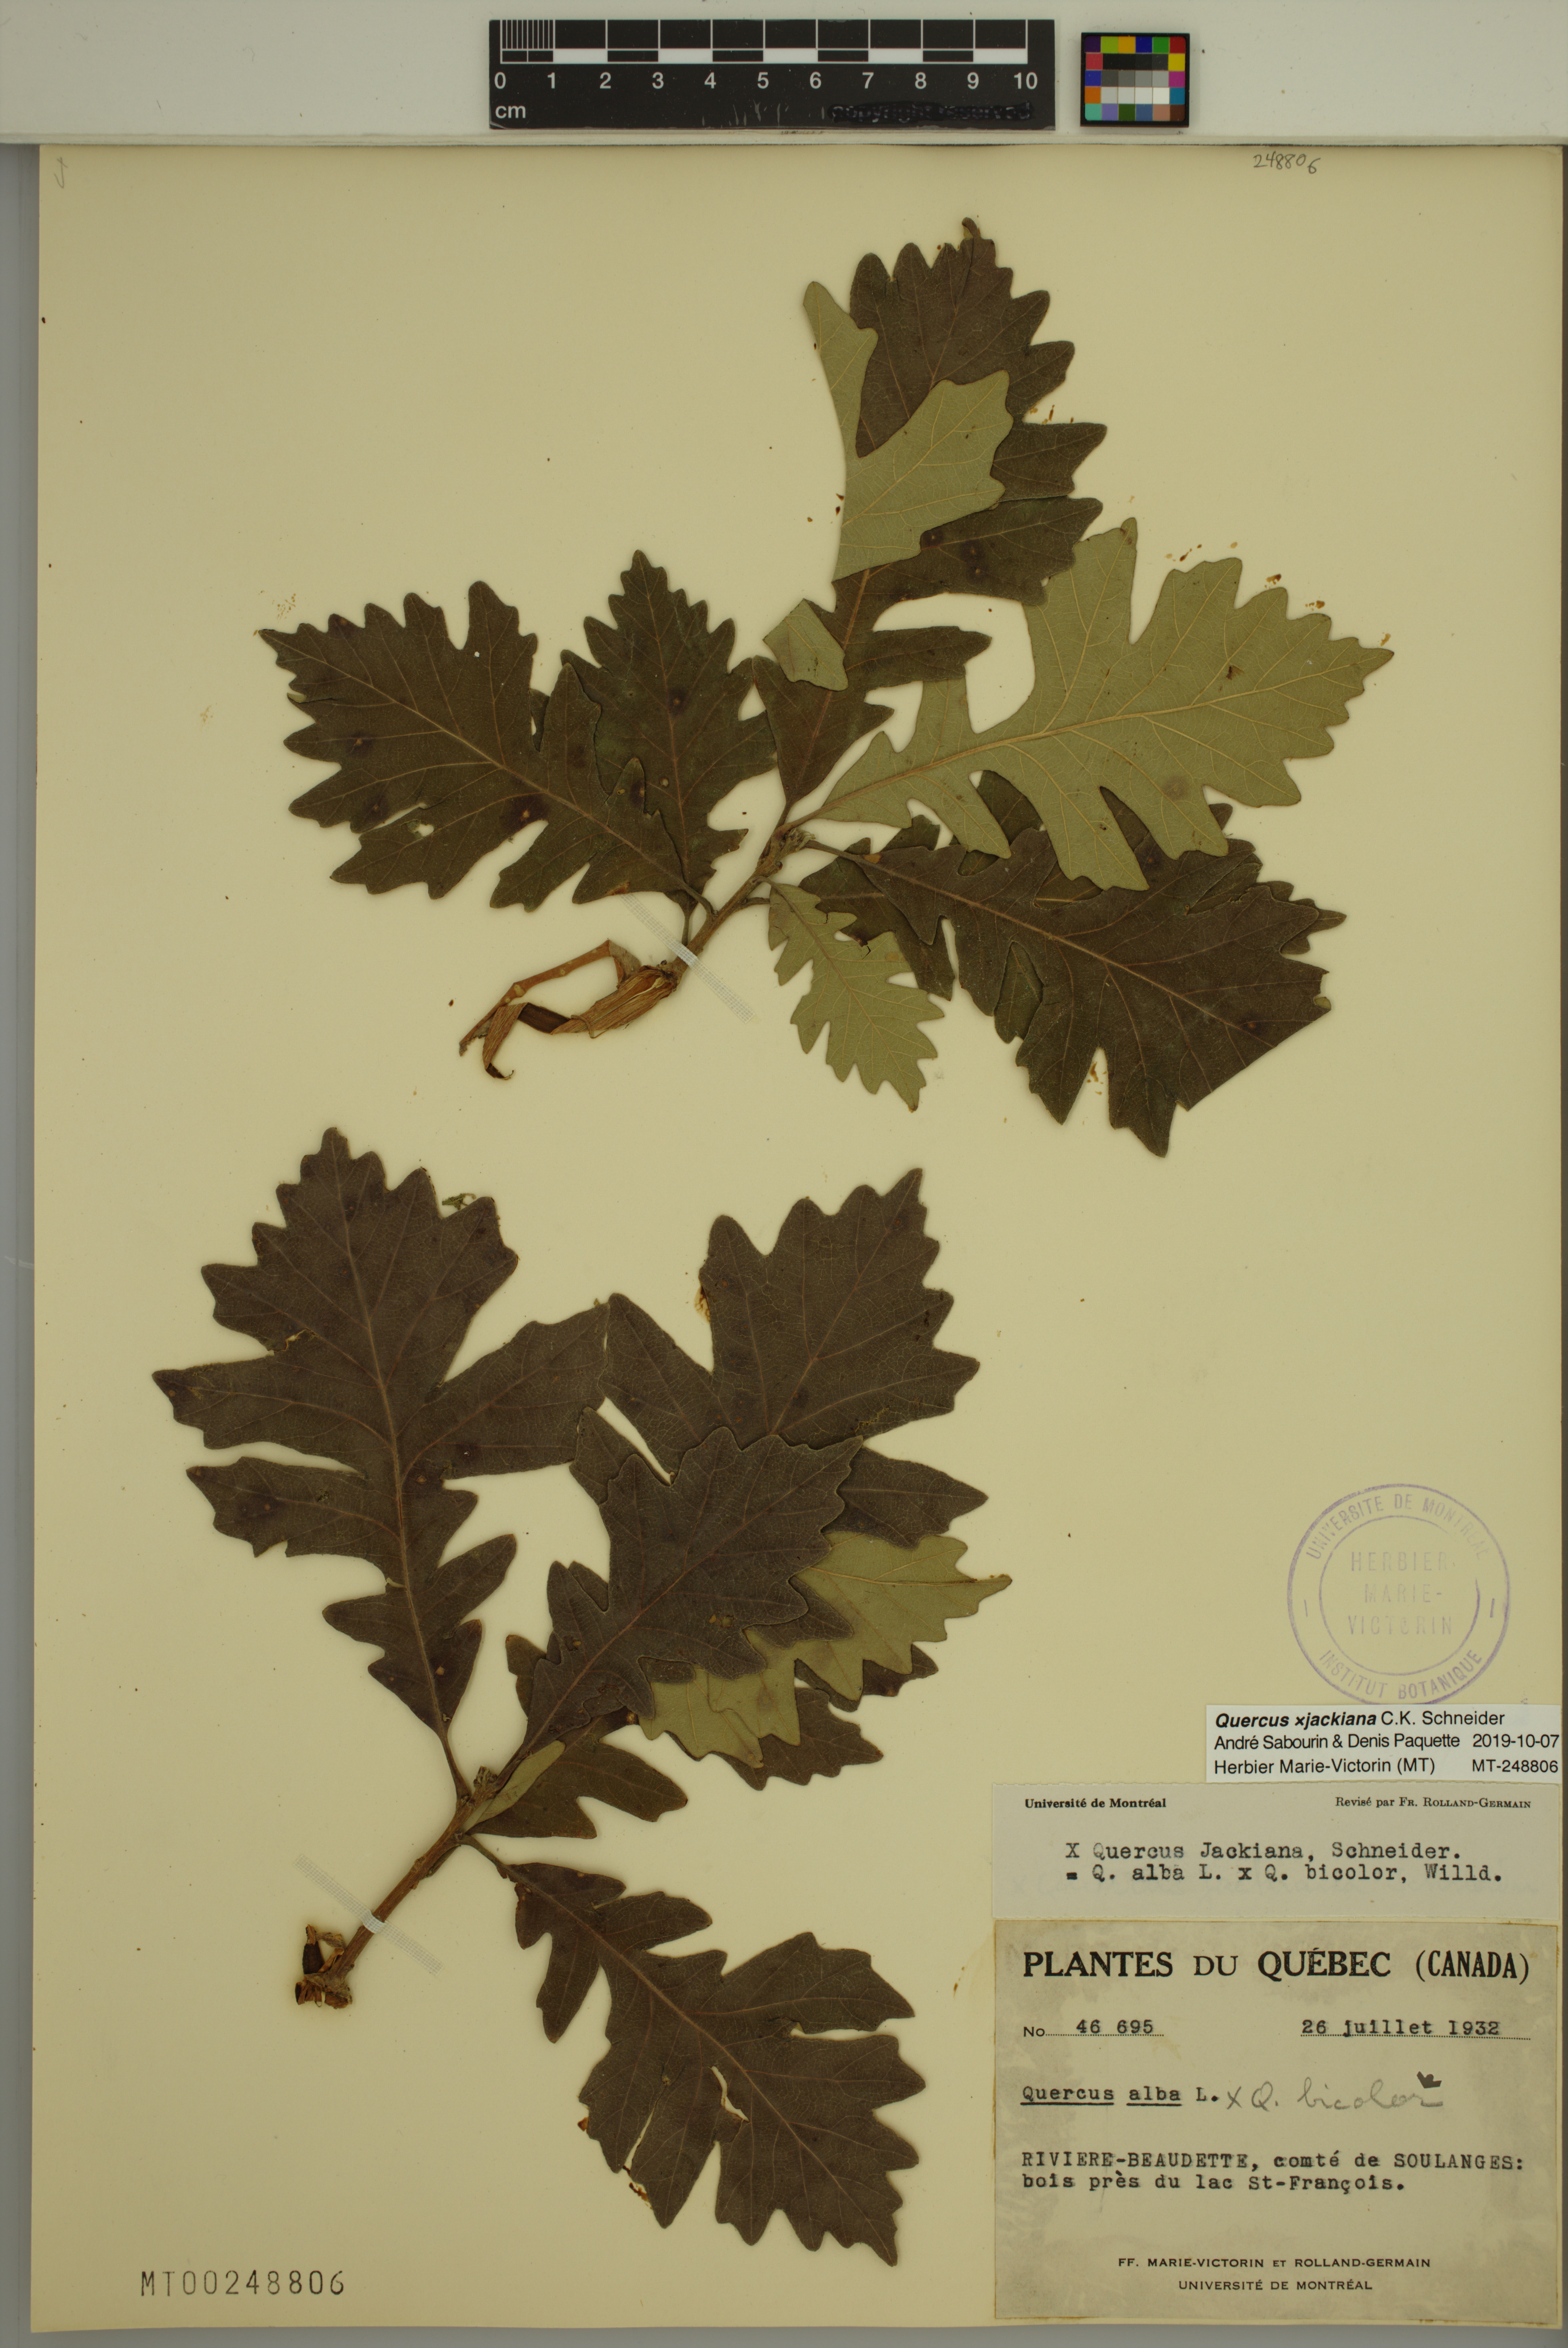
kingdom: Plantae
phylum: Tracheophyta
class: Magnoliopsida
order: Fagales
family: Fagaceae
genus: Quercus
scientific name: Quercus jackiana
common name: Jack's oak
